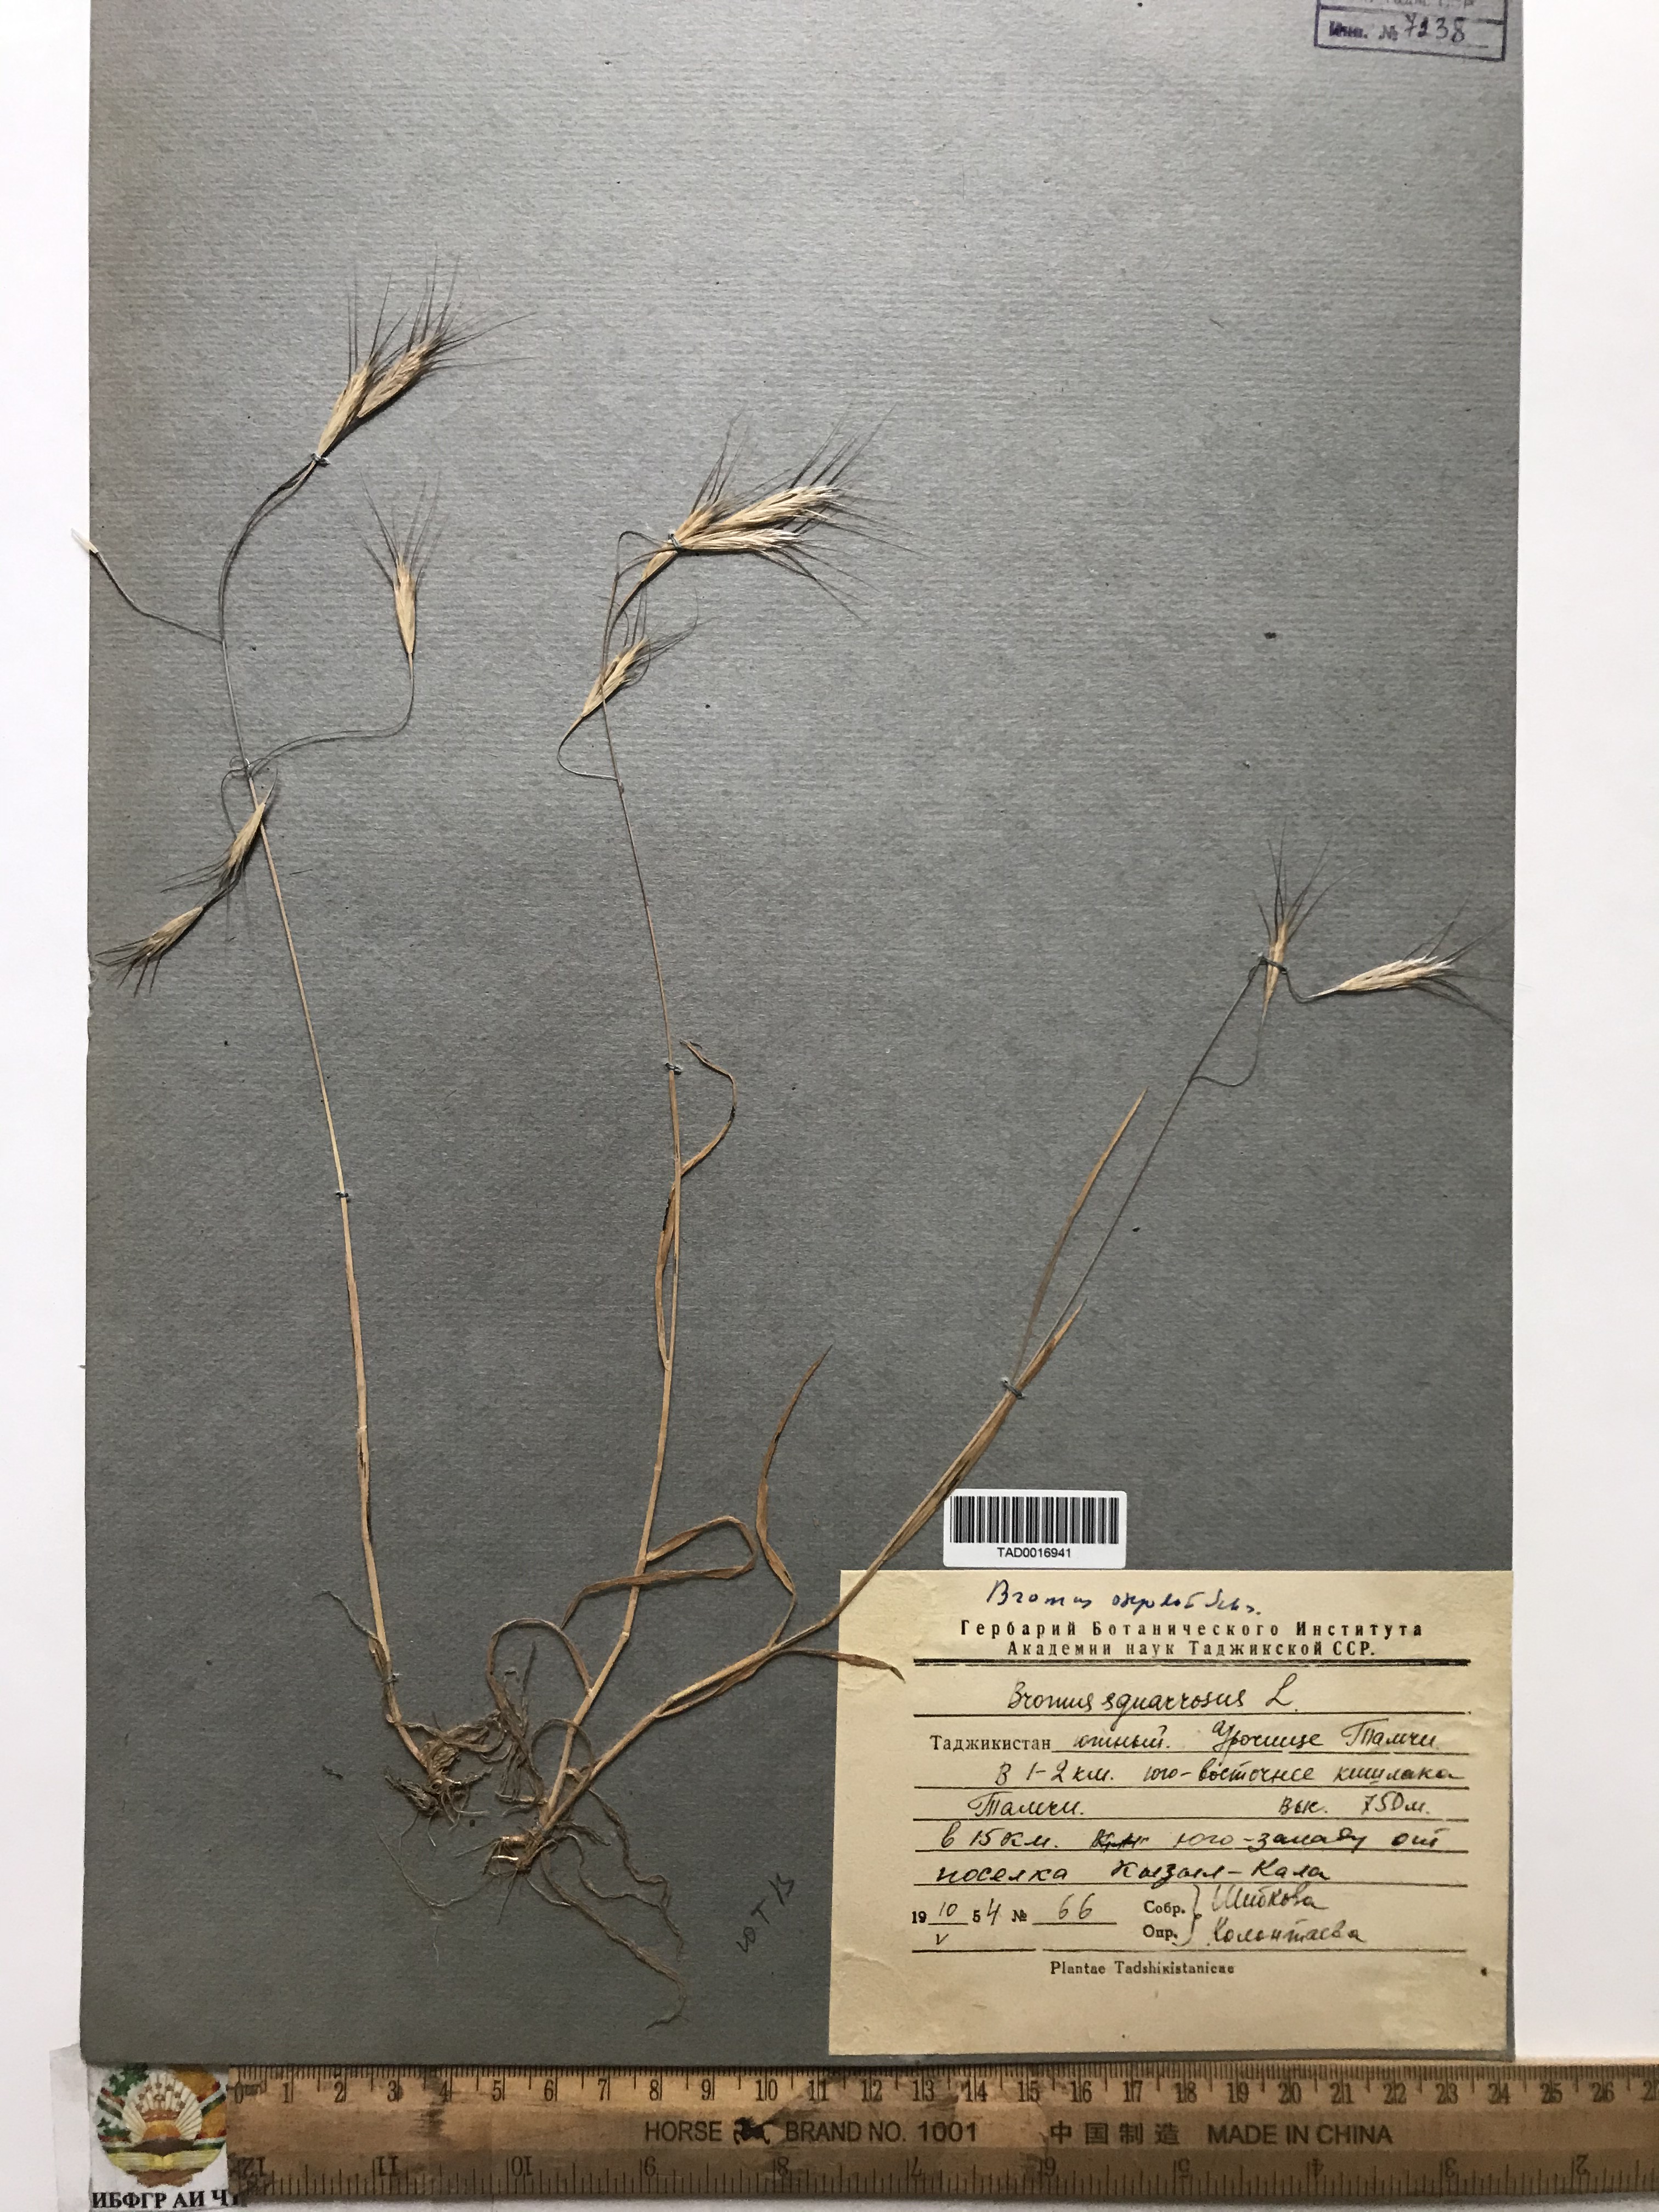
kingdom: Plantae
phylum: Tracheophyta
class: Liliopsida
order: Poales
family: Poaceae
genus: Bromus
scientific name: Bromus oxyodon
